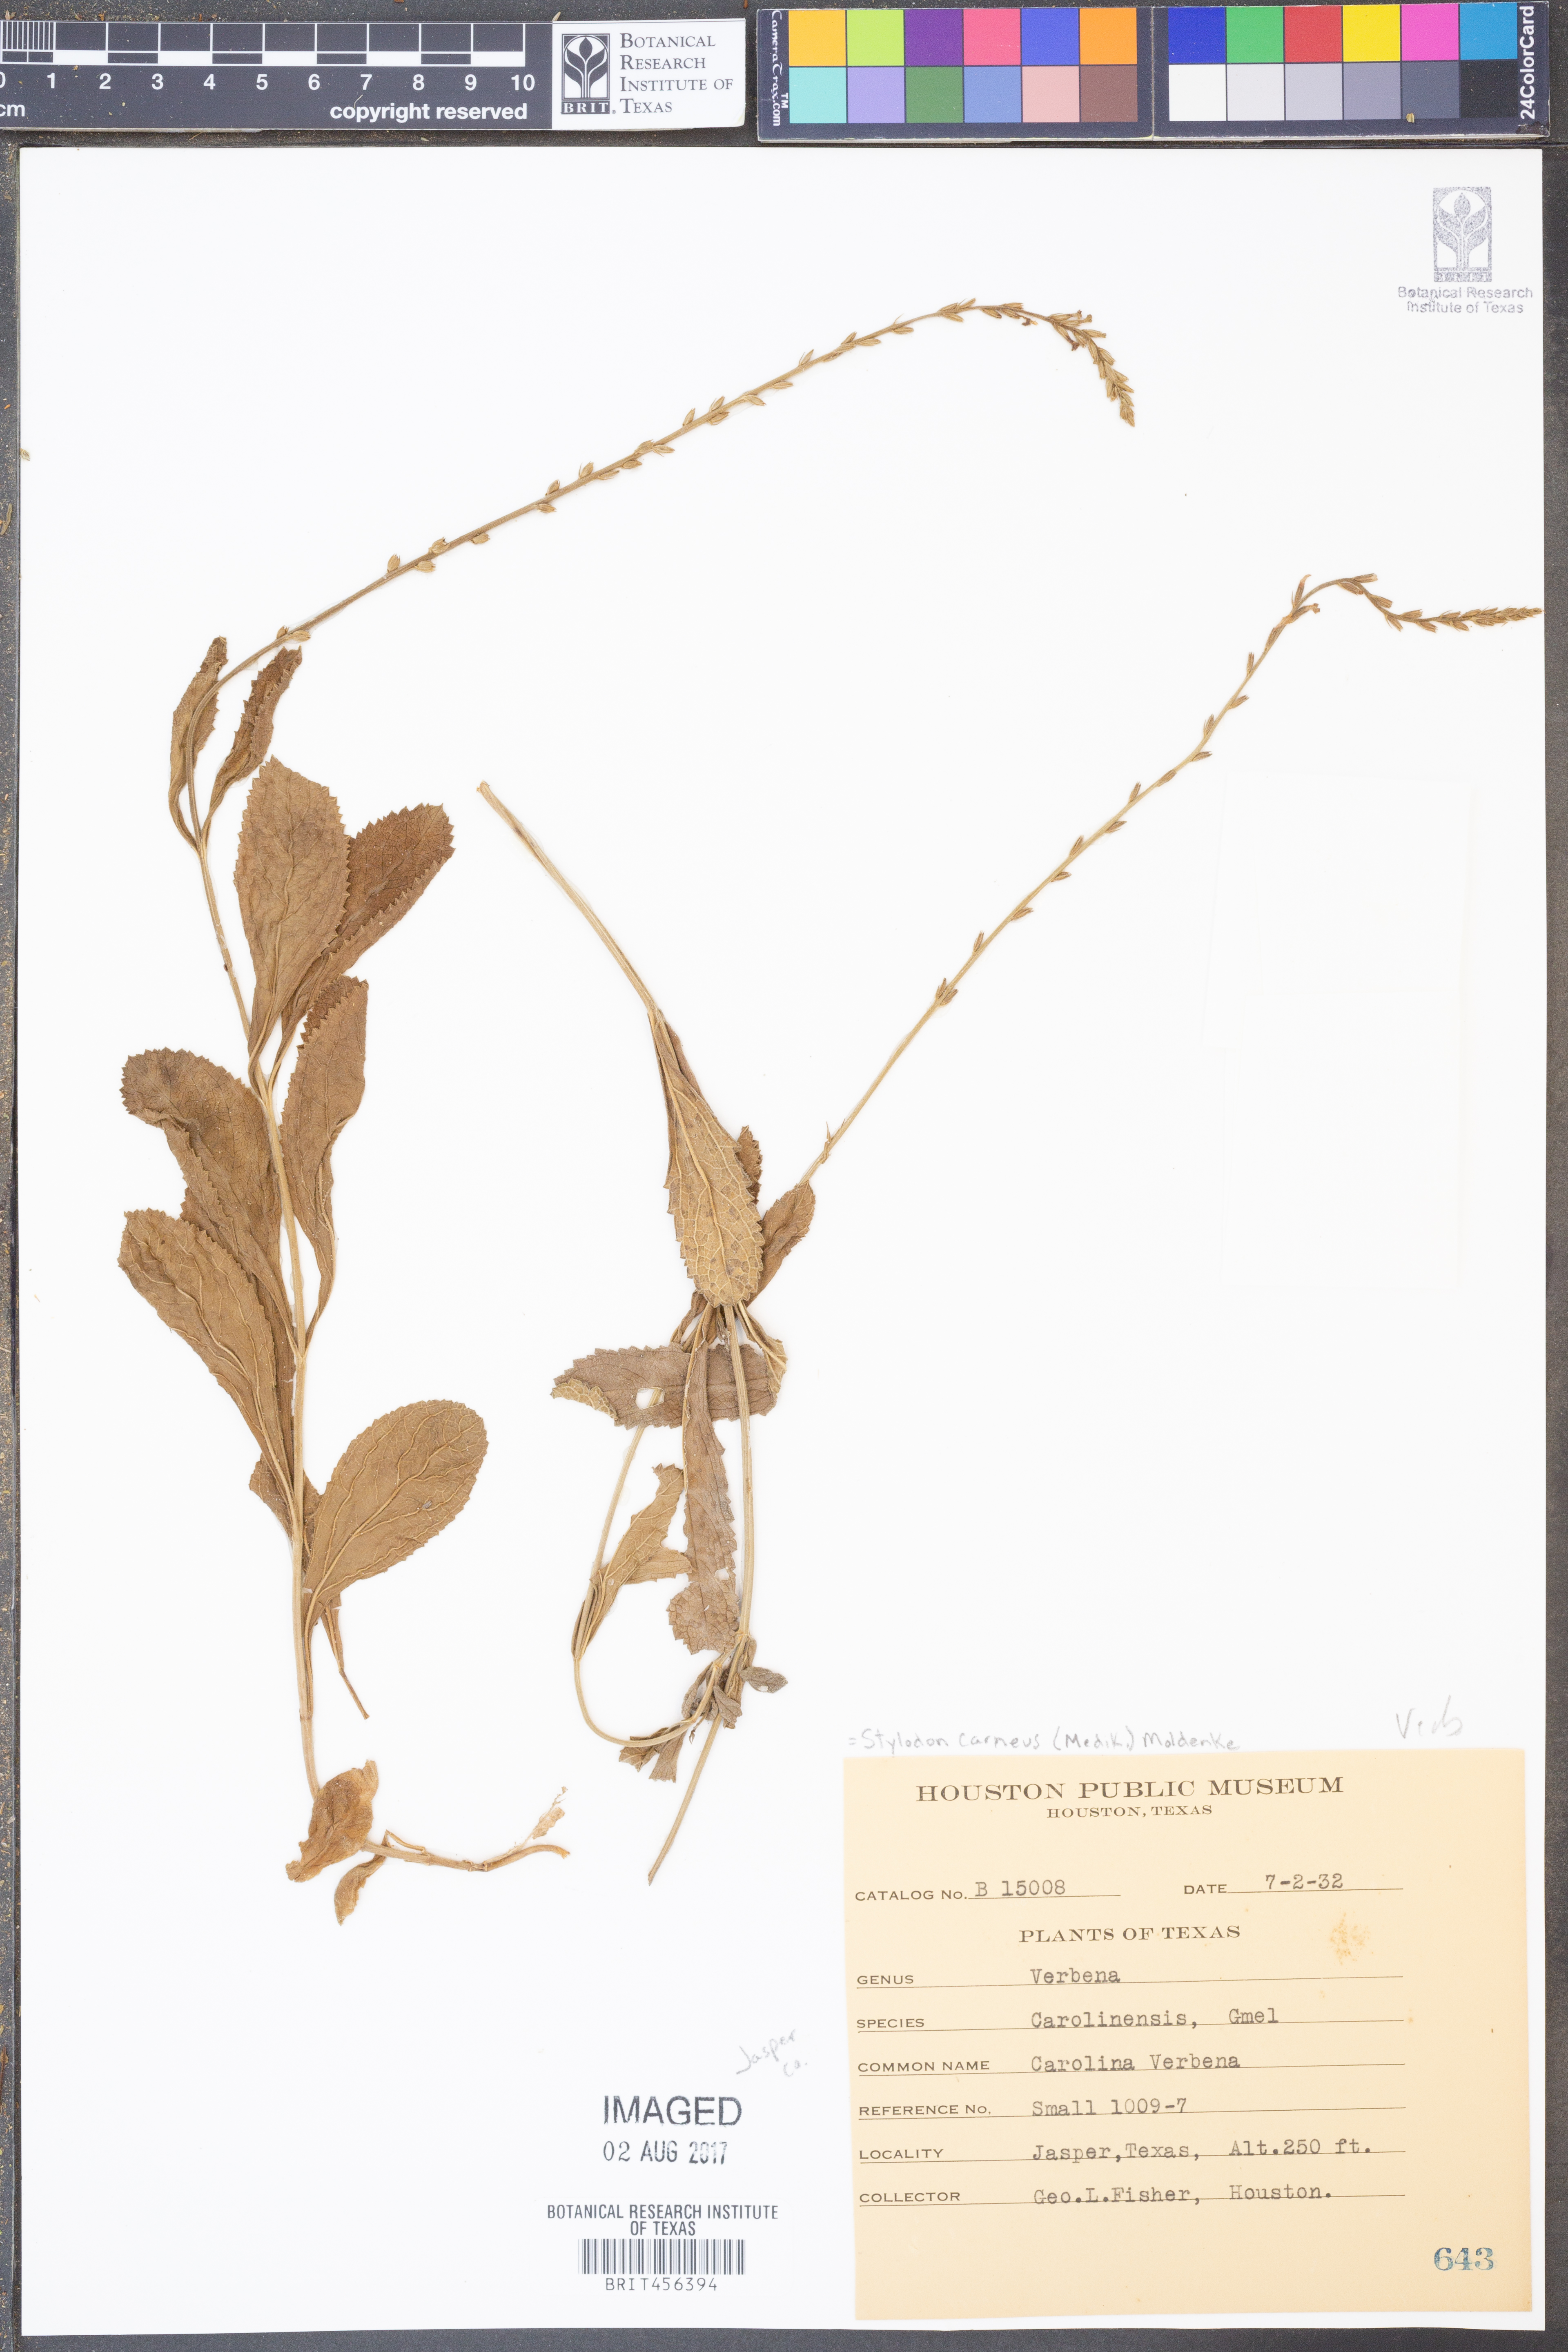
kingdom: Plantae
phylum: Tracheophyta
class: Magnoliopsida
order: Lamiales
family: Verbenaceae
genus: Verbena
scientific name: Verbena carnea
